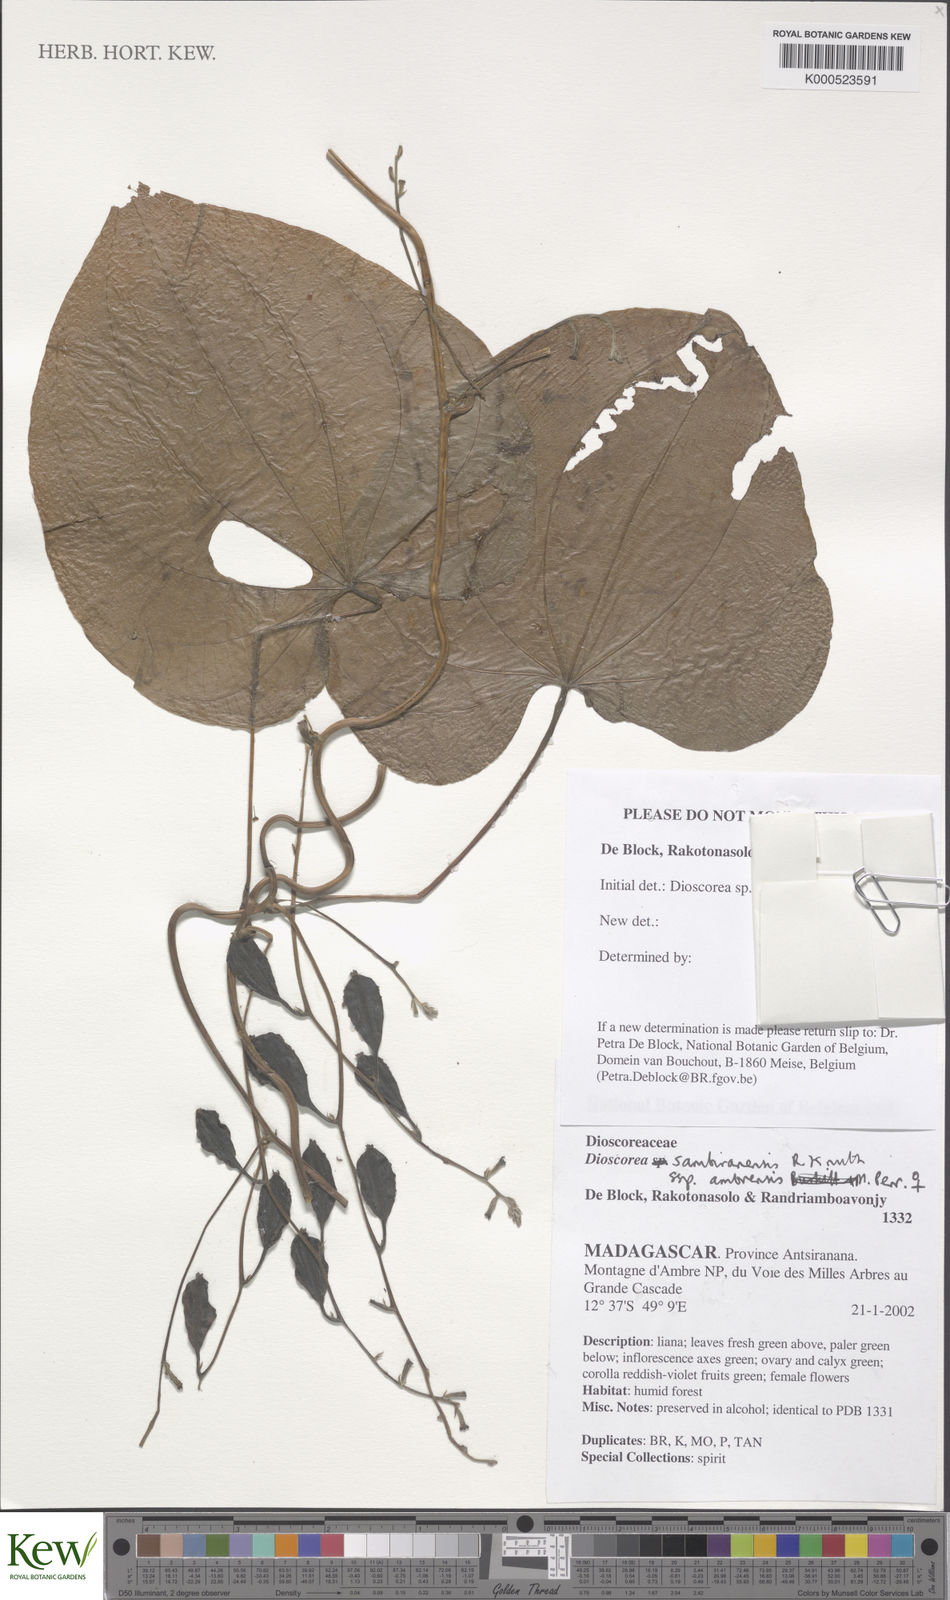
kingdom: Plantae
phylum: Tracheophyta
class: Liliopsida
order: Dioscoreales
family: Dioscoreaceae
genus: Dioscorea
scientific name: Dioscorea sambiranensis
